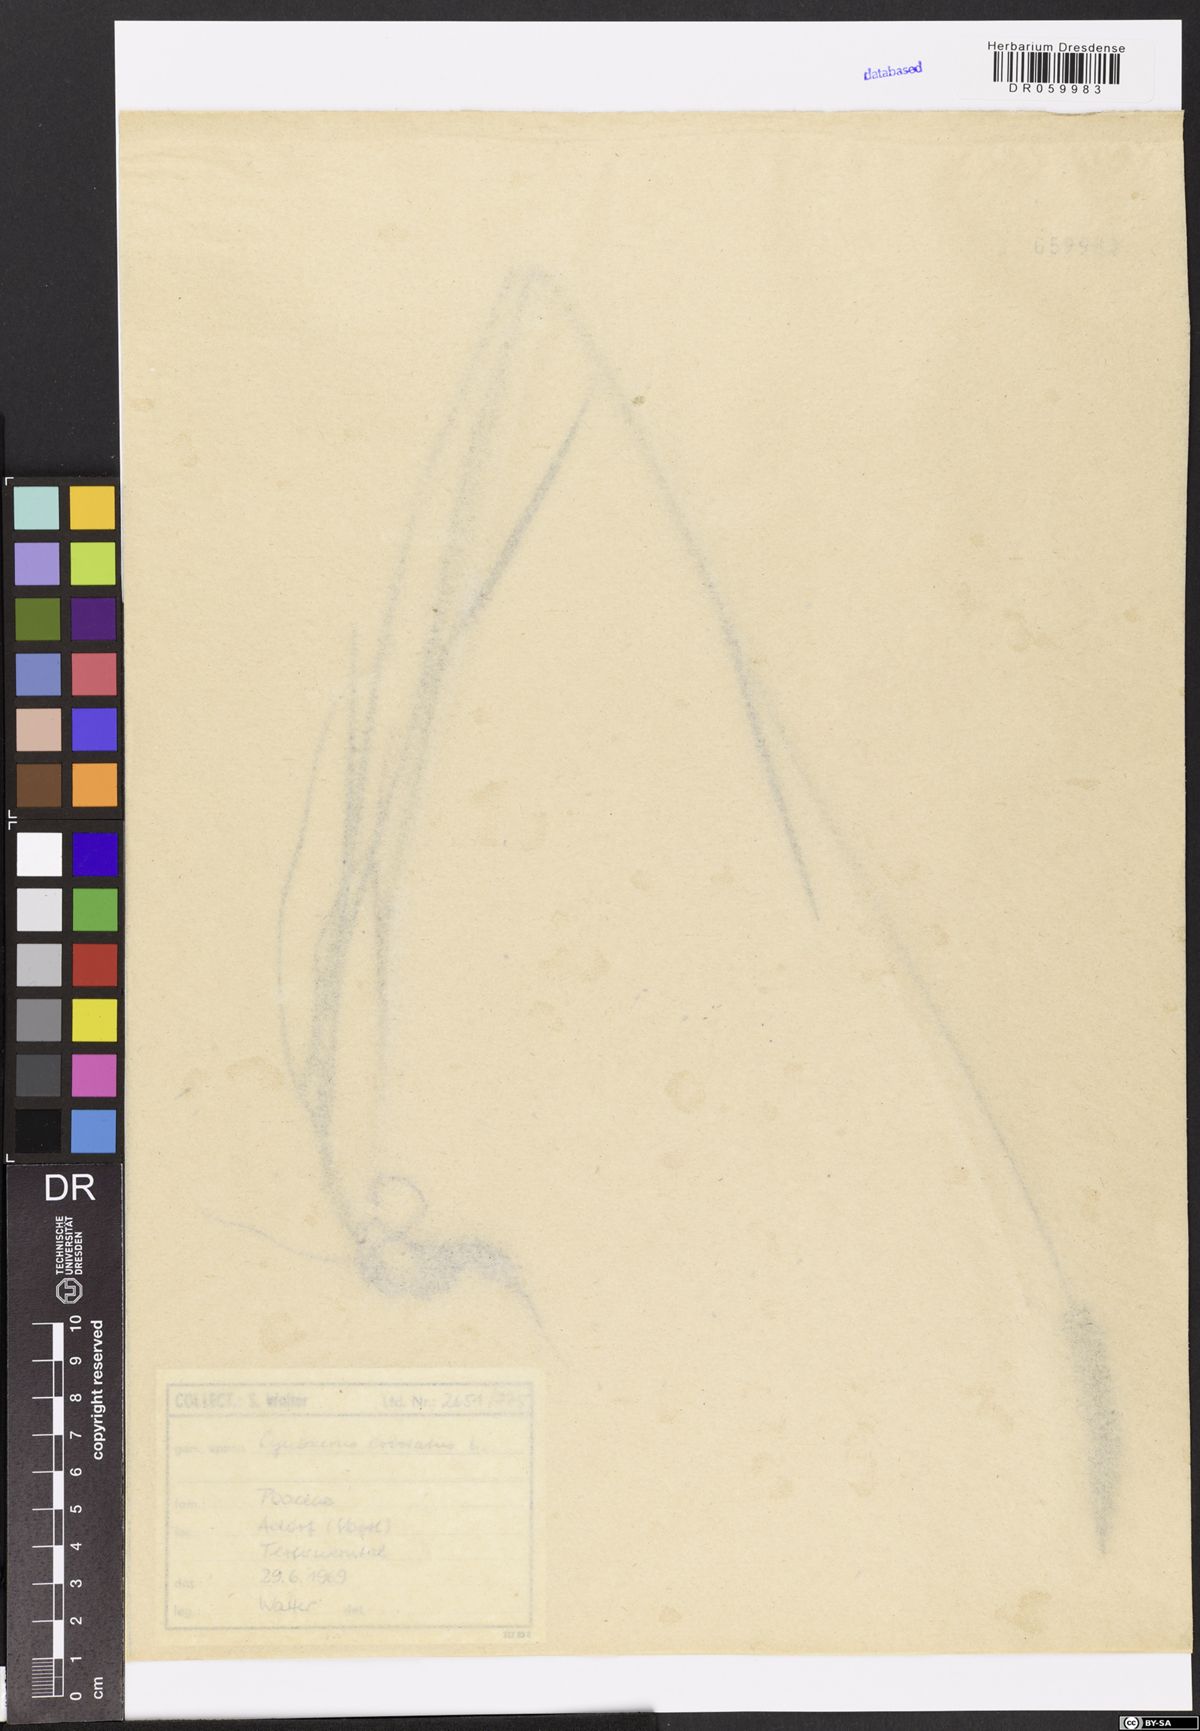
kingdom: Plantae
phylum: Tracheophyta
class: Liliopsida
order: Poales
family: Poaceae
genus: Cynosurus
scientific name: Cynosurus cristatus
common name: Crested dog's-tail
